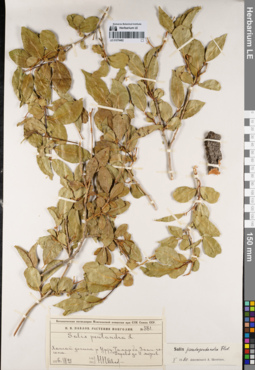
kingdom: Plantae
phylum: Tracheophyta
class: Magnoliopsida
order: Malpighiales
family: Salicaceae
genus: Salix
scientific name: Salix pseudopentandra
